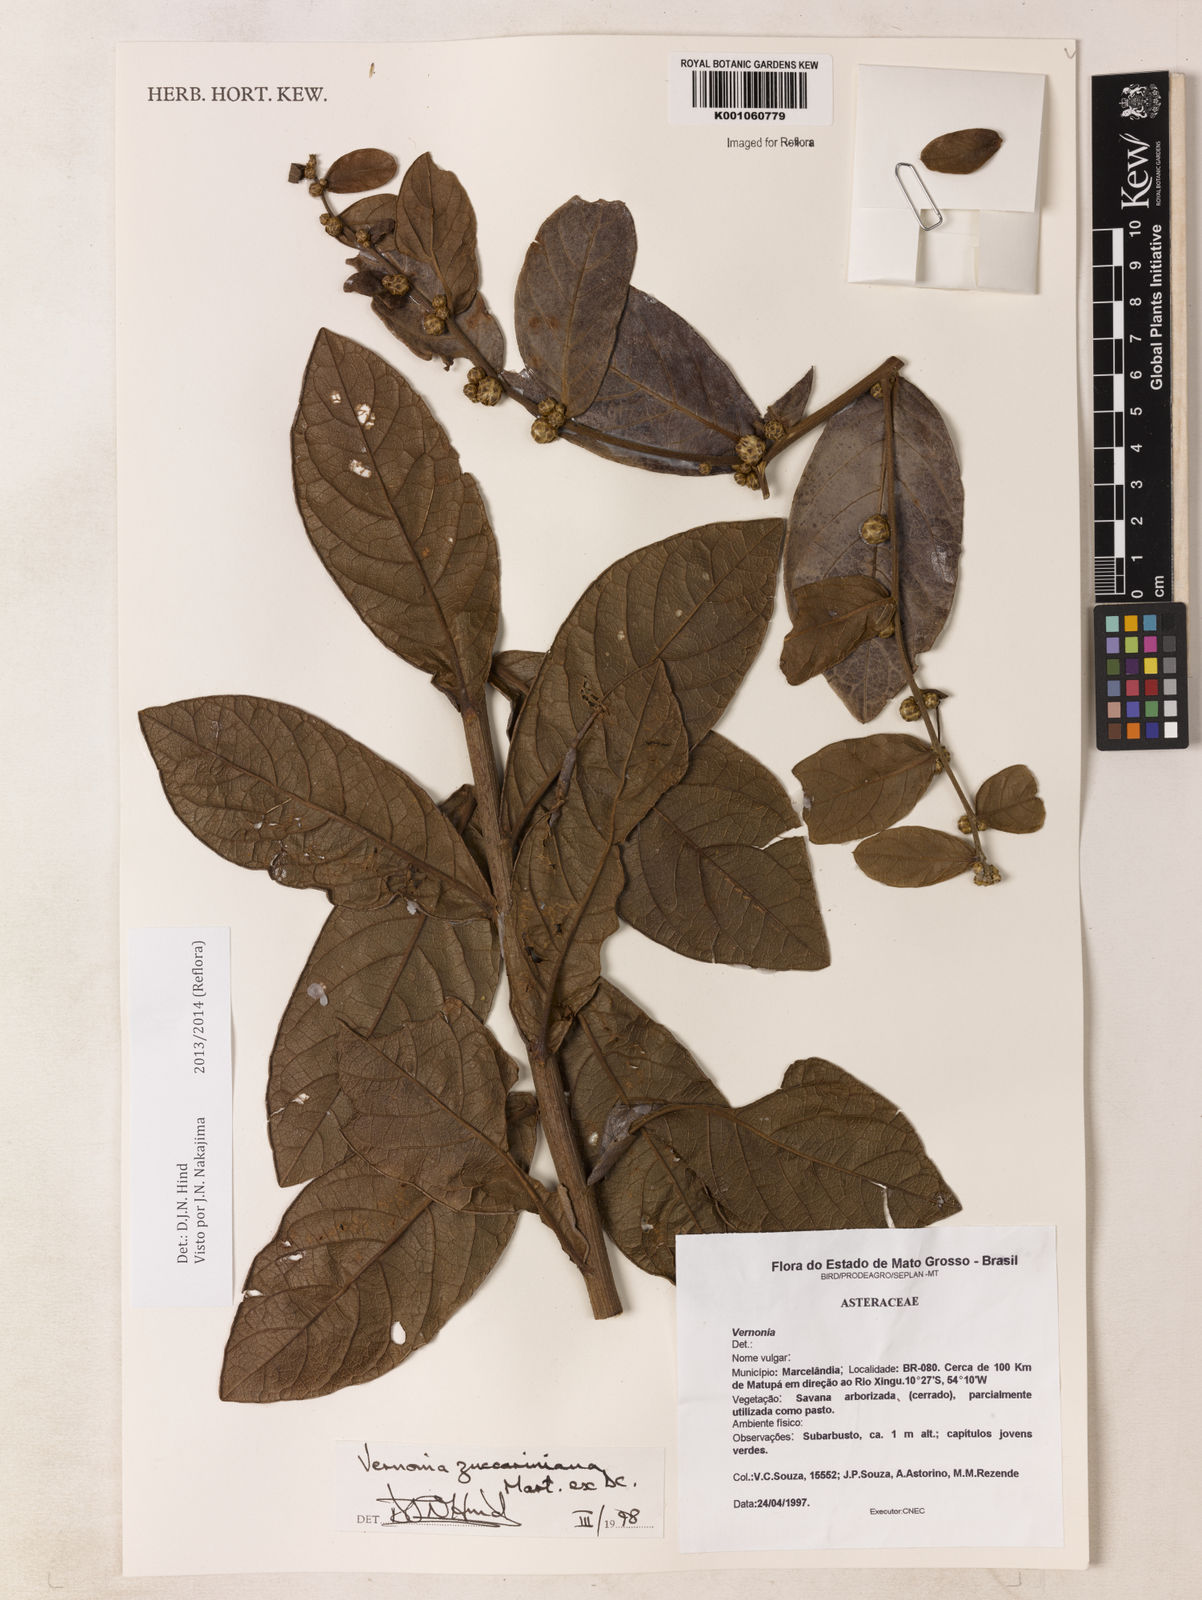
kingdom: Plantae
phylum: Tracheophyta
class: Magnoliopsida
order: Asterales
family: Asteraceae
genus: Lessingianthus
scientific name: Lessingianthus zuccarinianus
